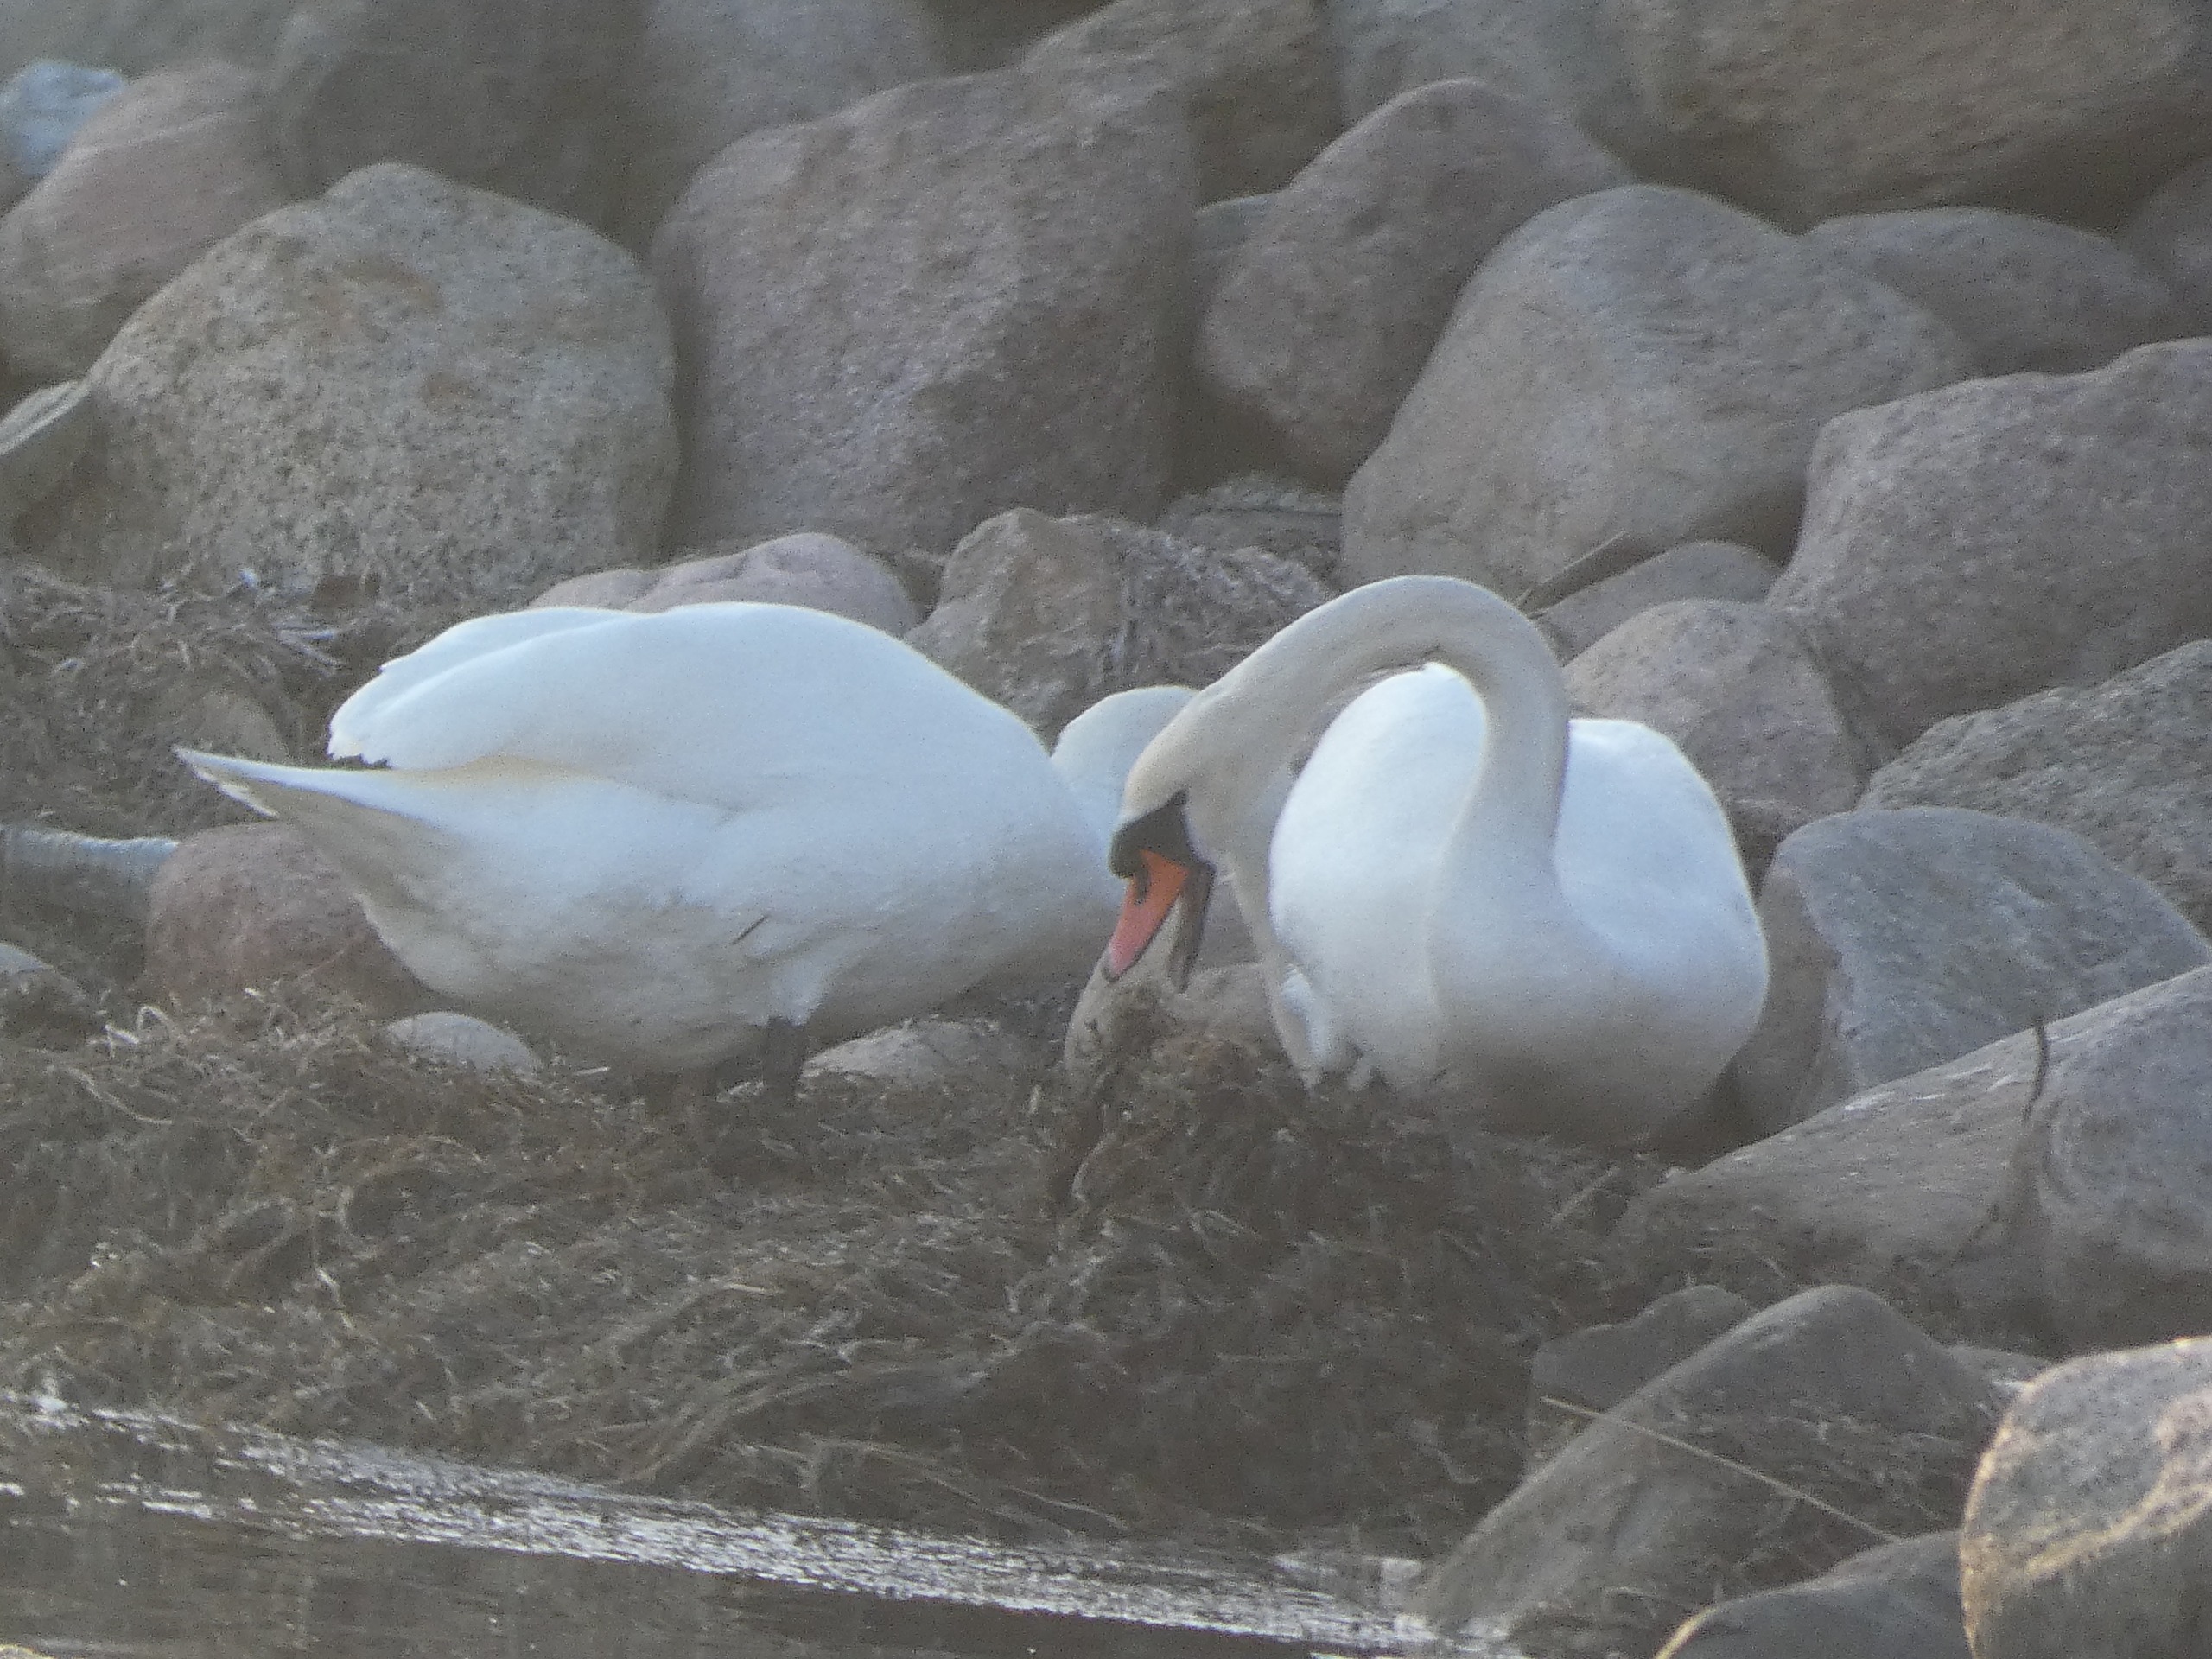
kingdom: Animalia
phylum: Chordata
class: Aves
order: Anseriformes
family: Anatidae
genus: Cygnus
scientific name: Cygnus olor
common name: Knopsvane
